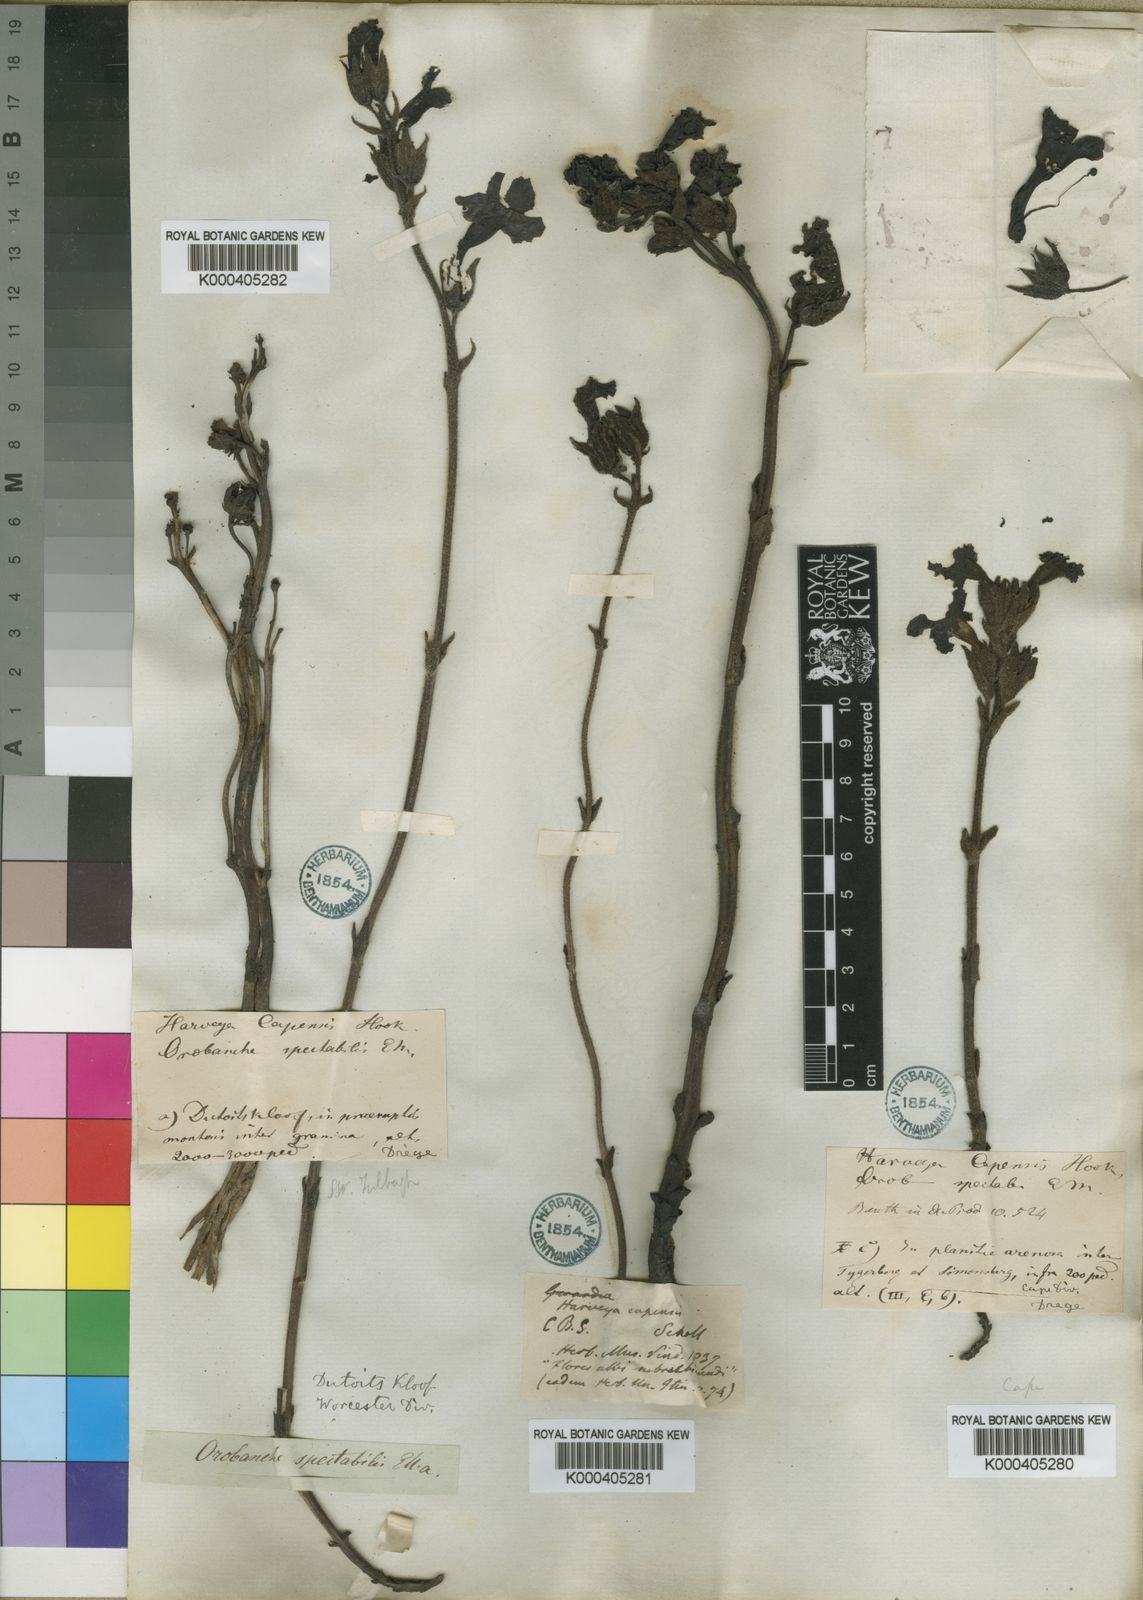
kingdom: Plantae
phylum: Tracheophyta
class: Magnoliopsida
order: Lamiales
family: Orobanchaceae
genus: Harveya
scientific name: Harveya capensis
